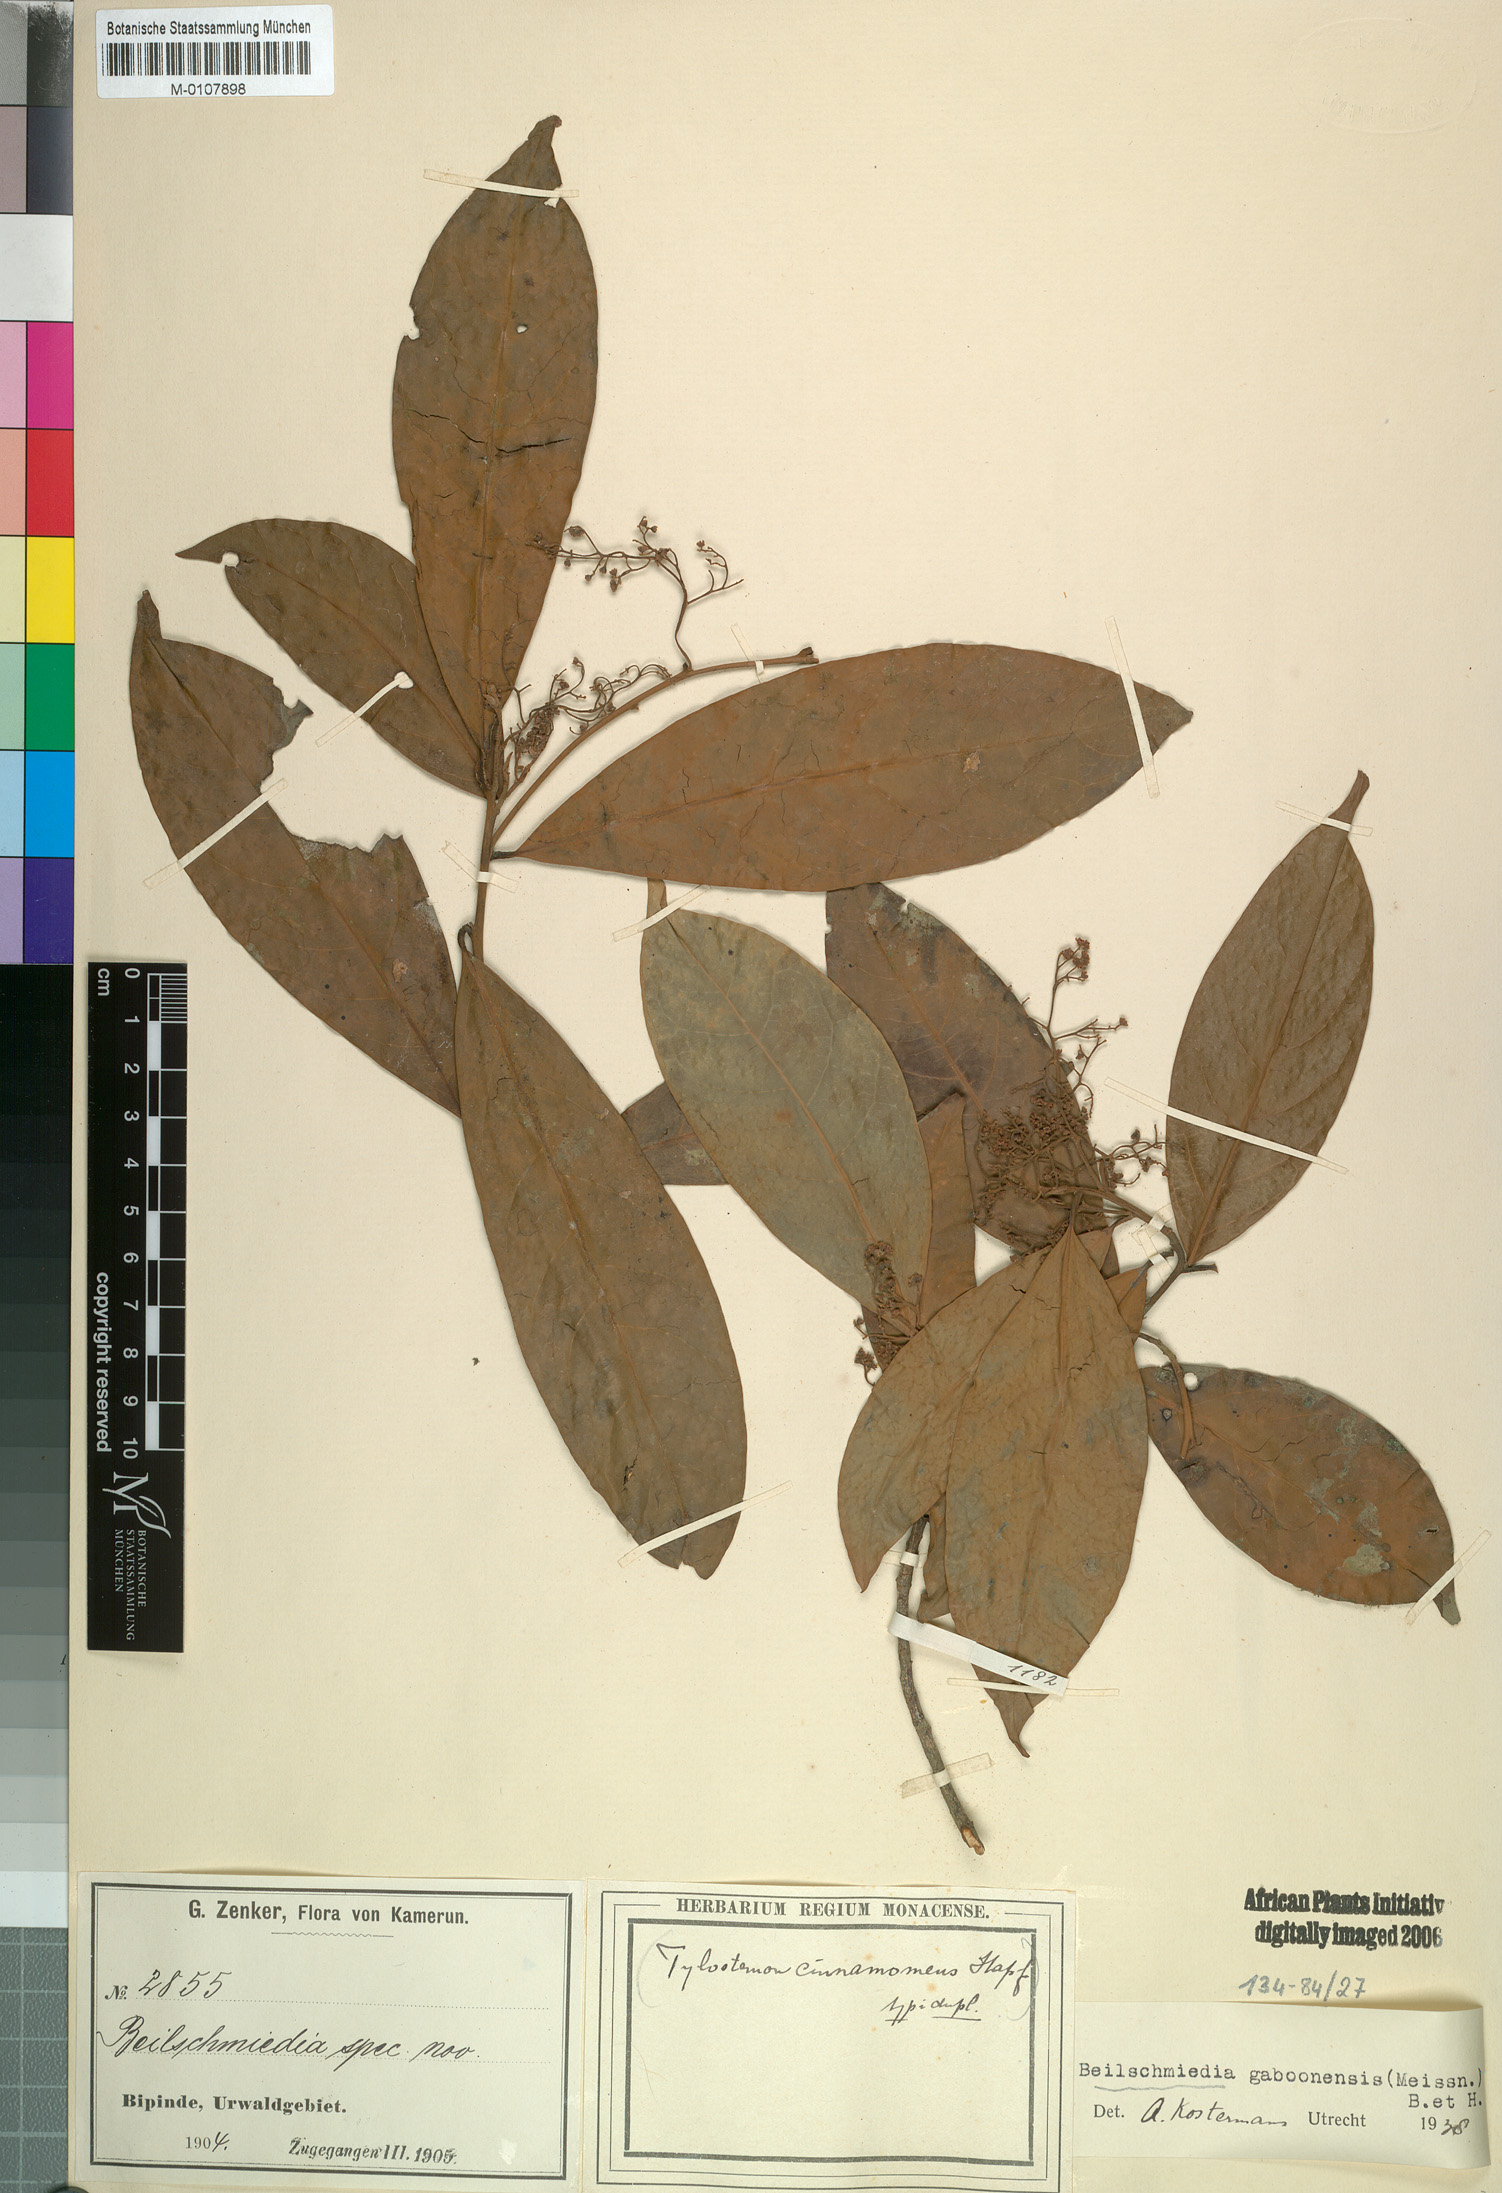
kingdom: Plantae
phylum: Tracheophyta
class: Magnoliopsida
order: Laurales
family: Lauraceae
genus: Beilschmiedia
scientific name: Beilschmiedia gaboonensis
